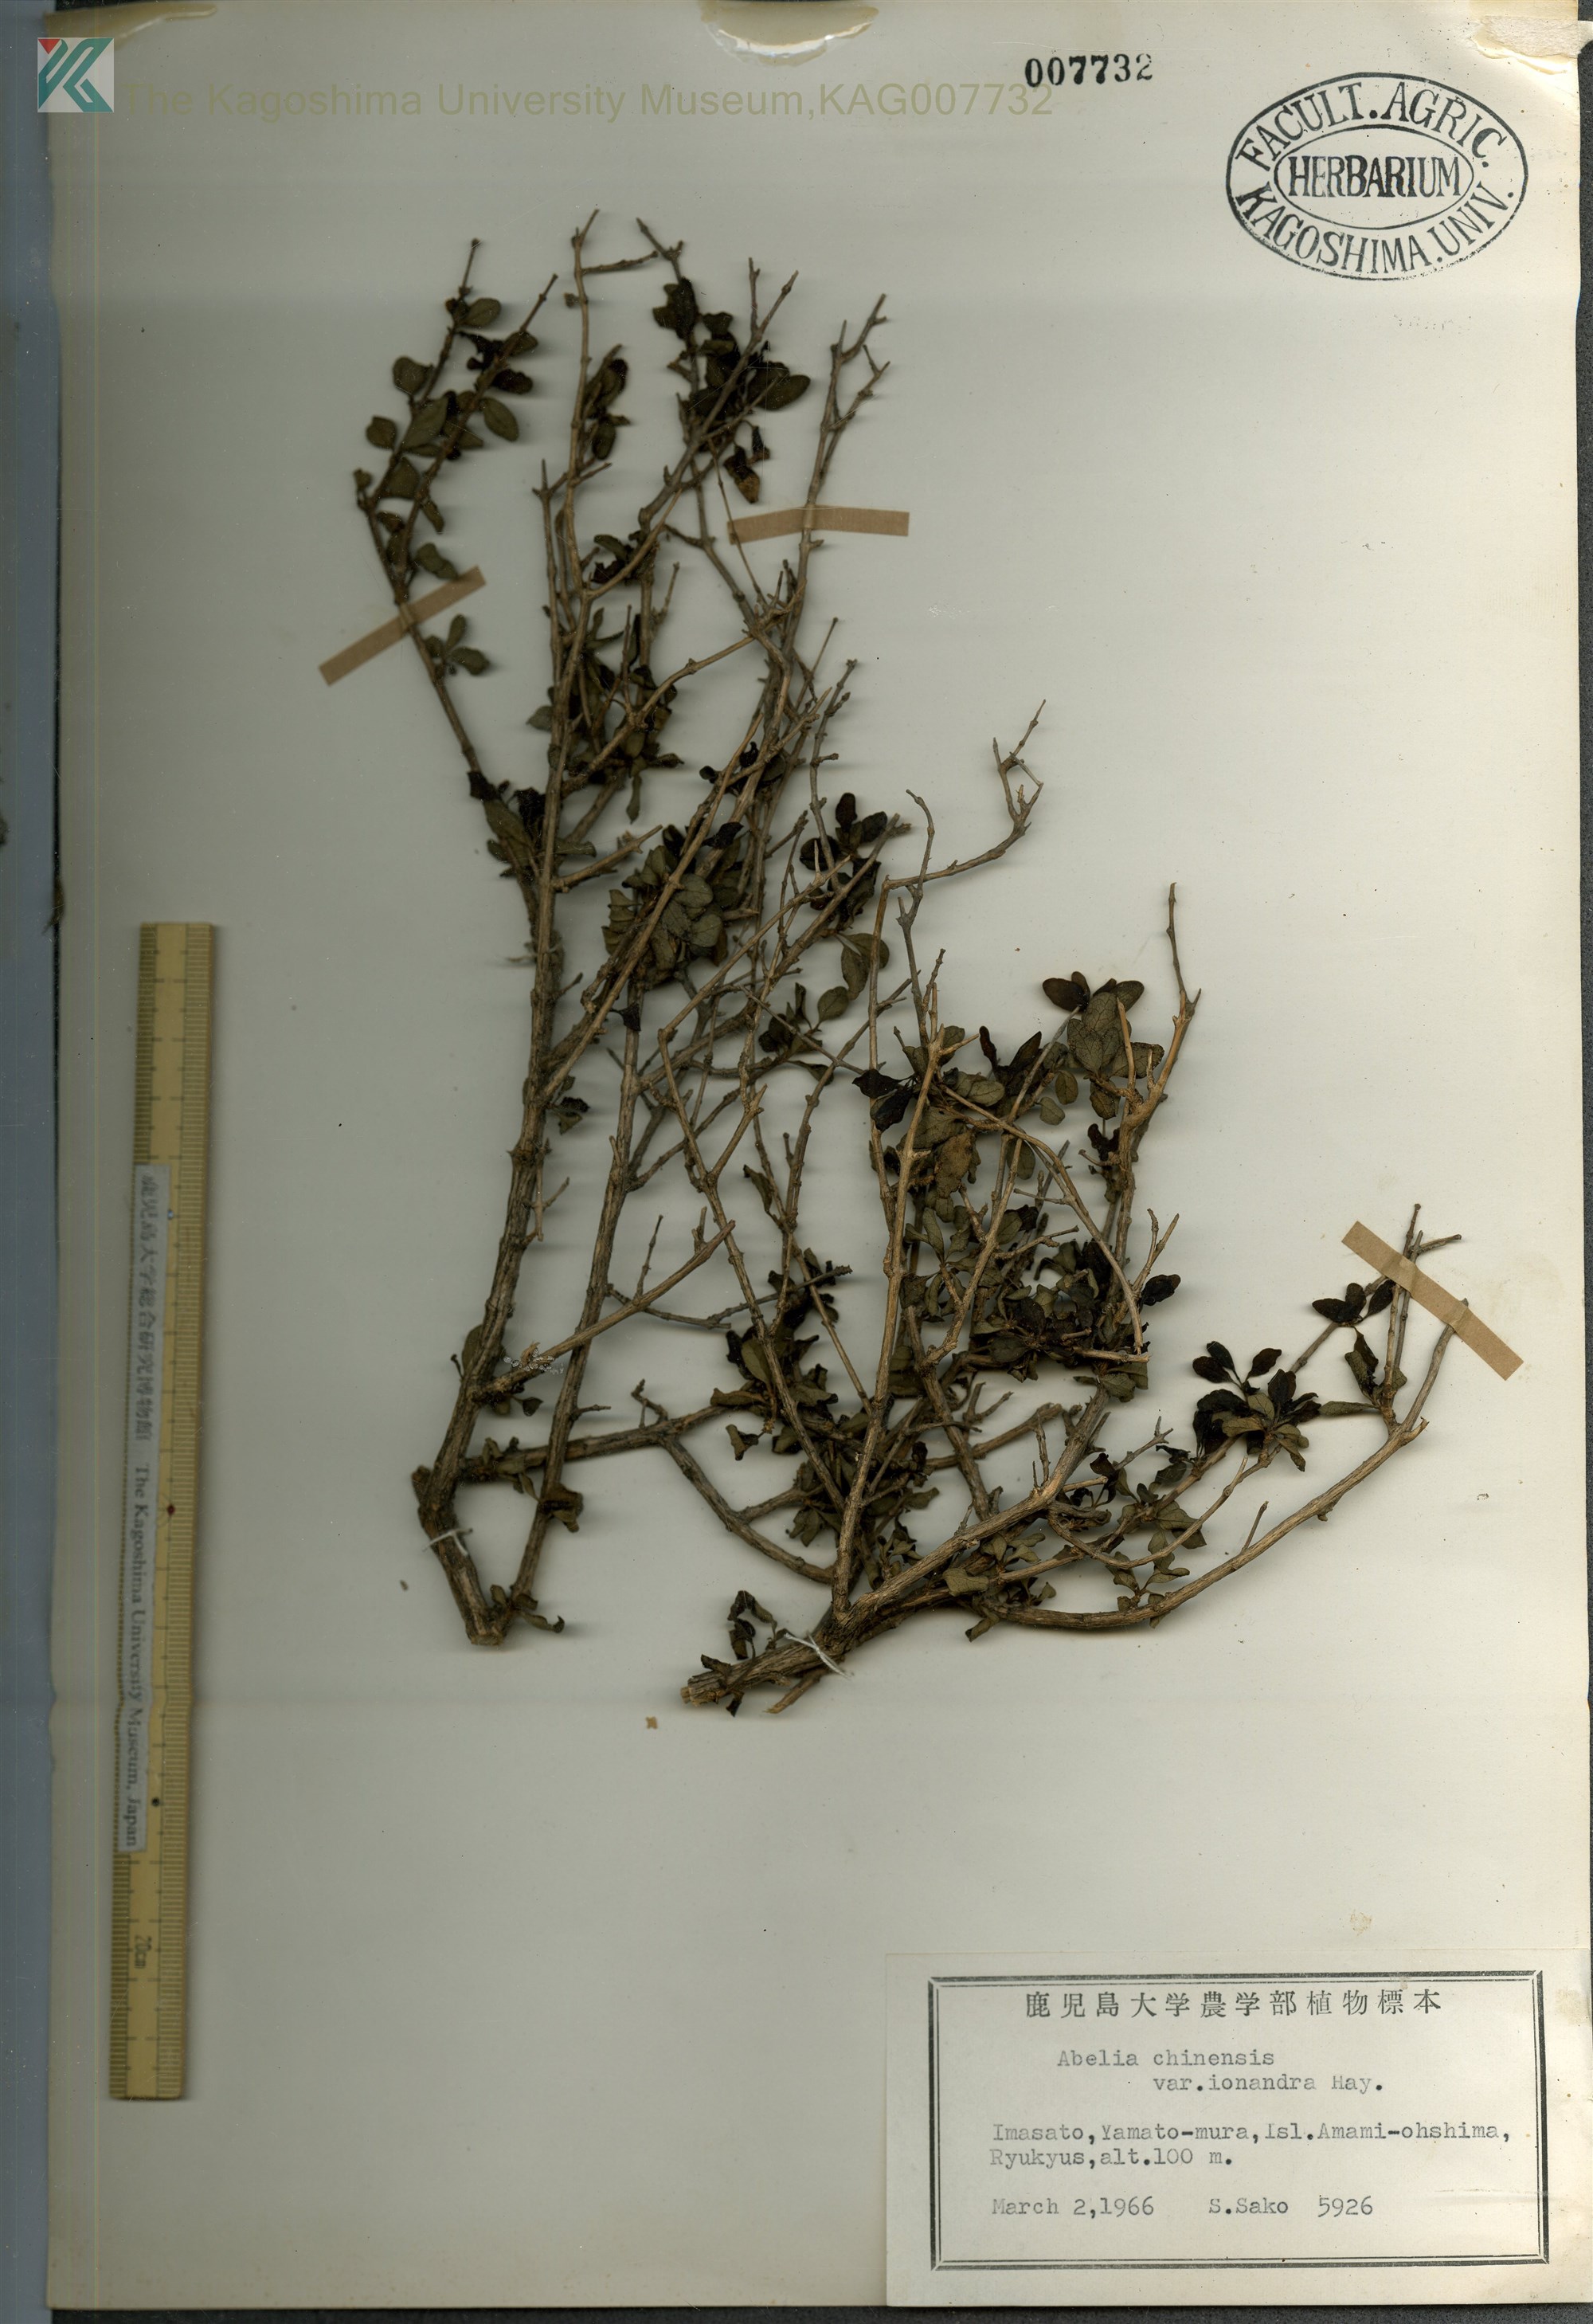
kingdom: Plantae
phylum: Tracheophyta
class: Magnoliopsida
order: Dipsacales
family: Caprifoliaceae
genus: Abelia
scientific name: Abelia chinensis
